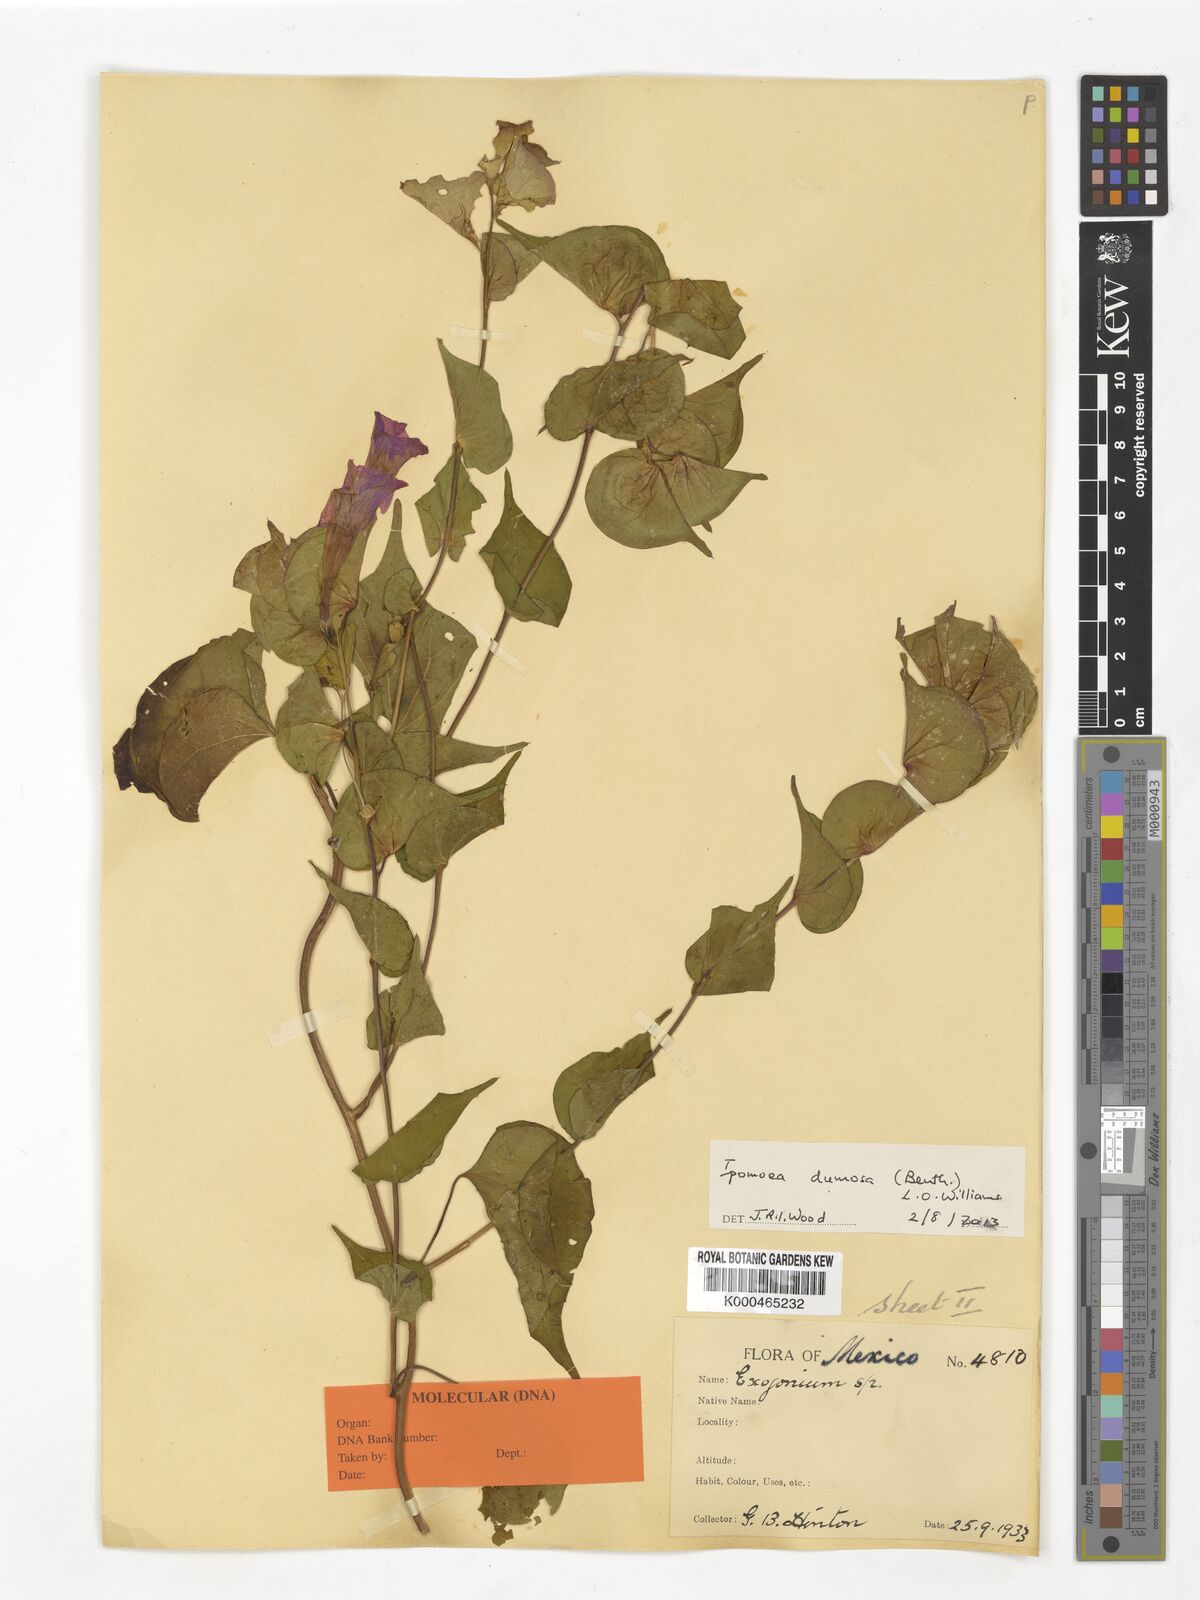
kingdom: Plantae
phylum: Tracheophyta
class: Magnoliopsida
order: Solanales
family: Convolvulaceae
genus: Ipomoea
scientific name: Ipomoea bracteata
